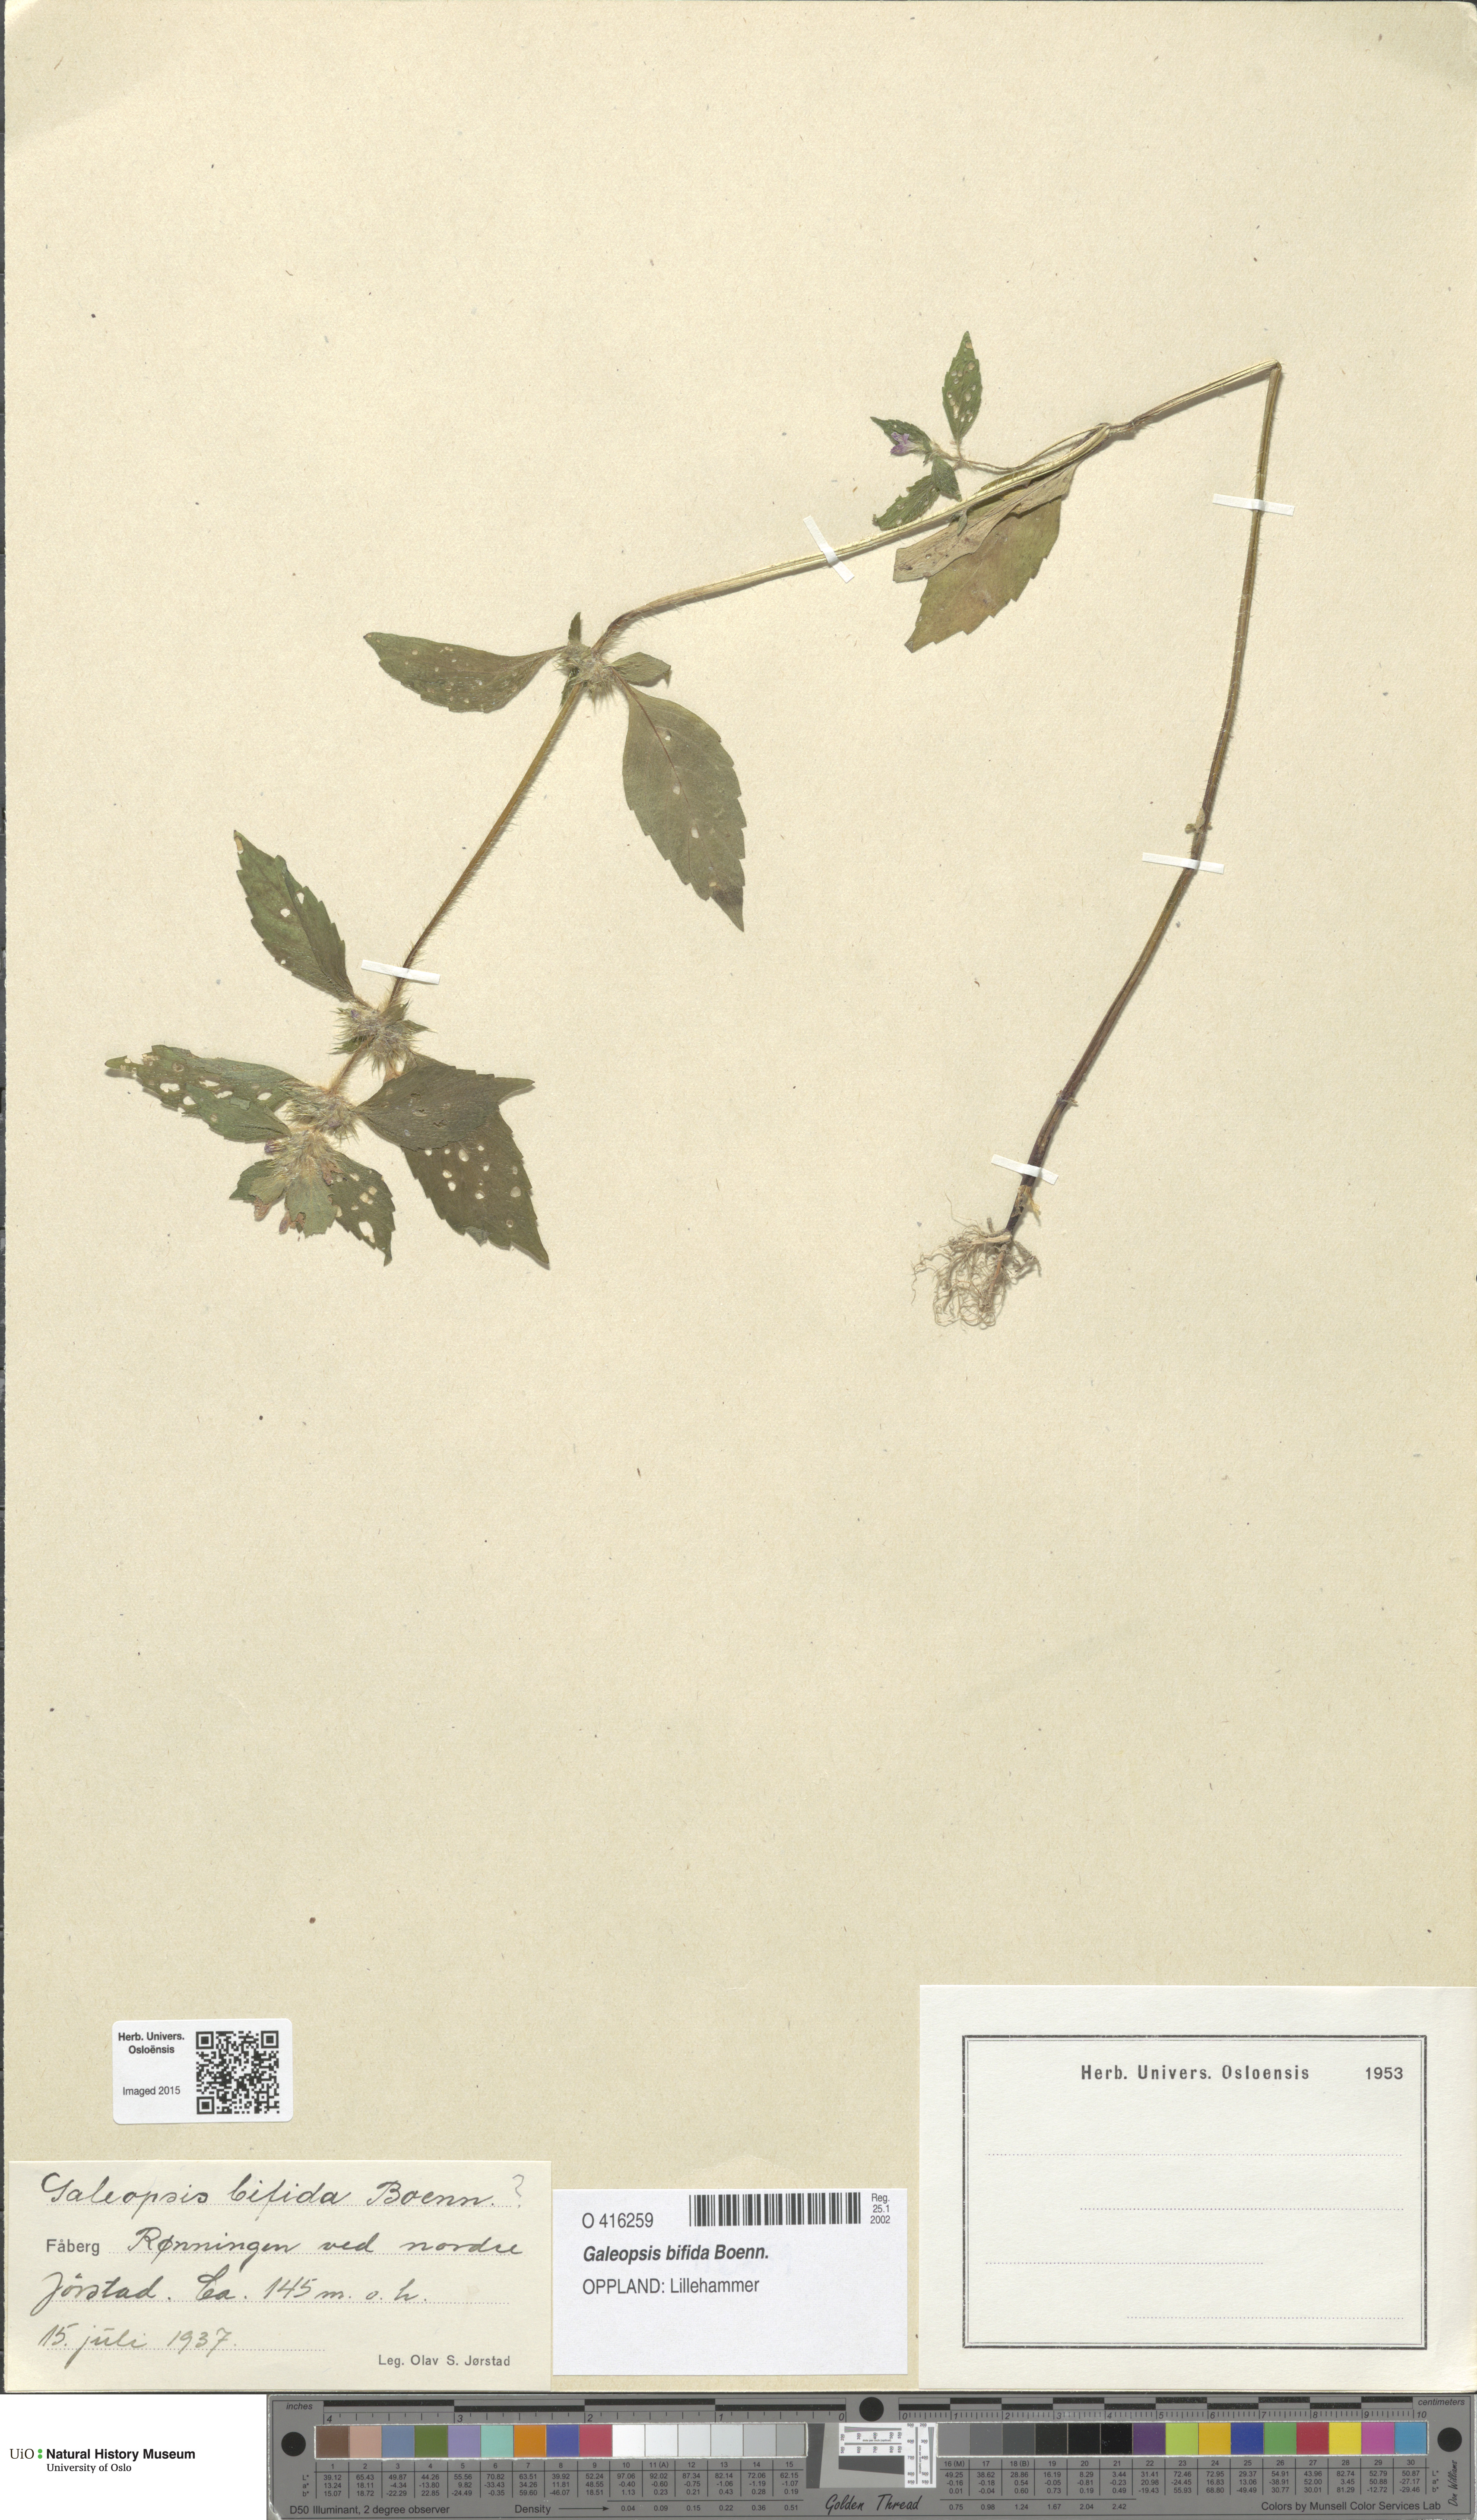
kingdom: Plantae
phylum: Tracheophyta
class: Magnoliopsida
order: Lamiales
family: Lamiaceae
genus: Galeopsis
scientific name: Galeopsis bifida
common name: Bifid hemp-nettle
